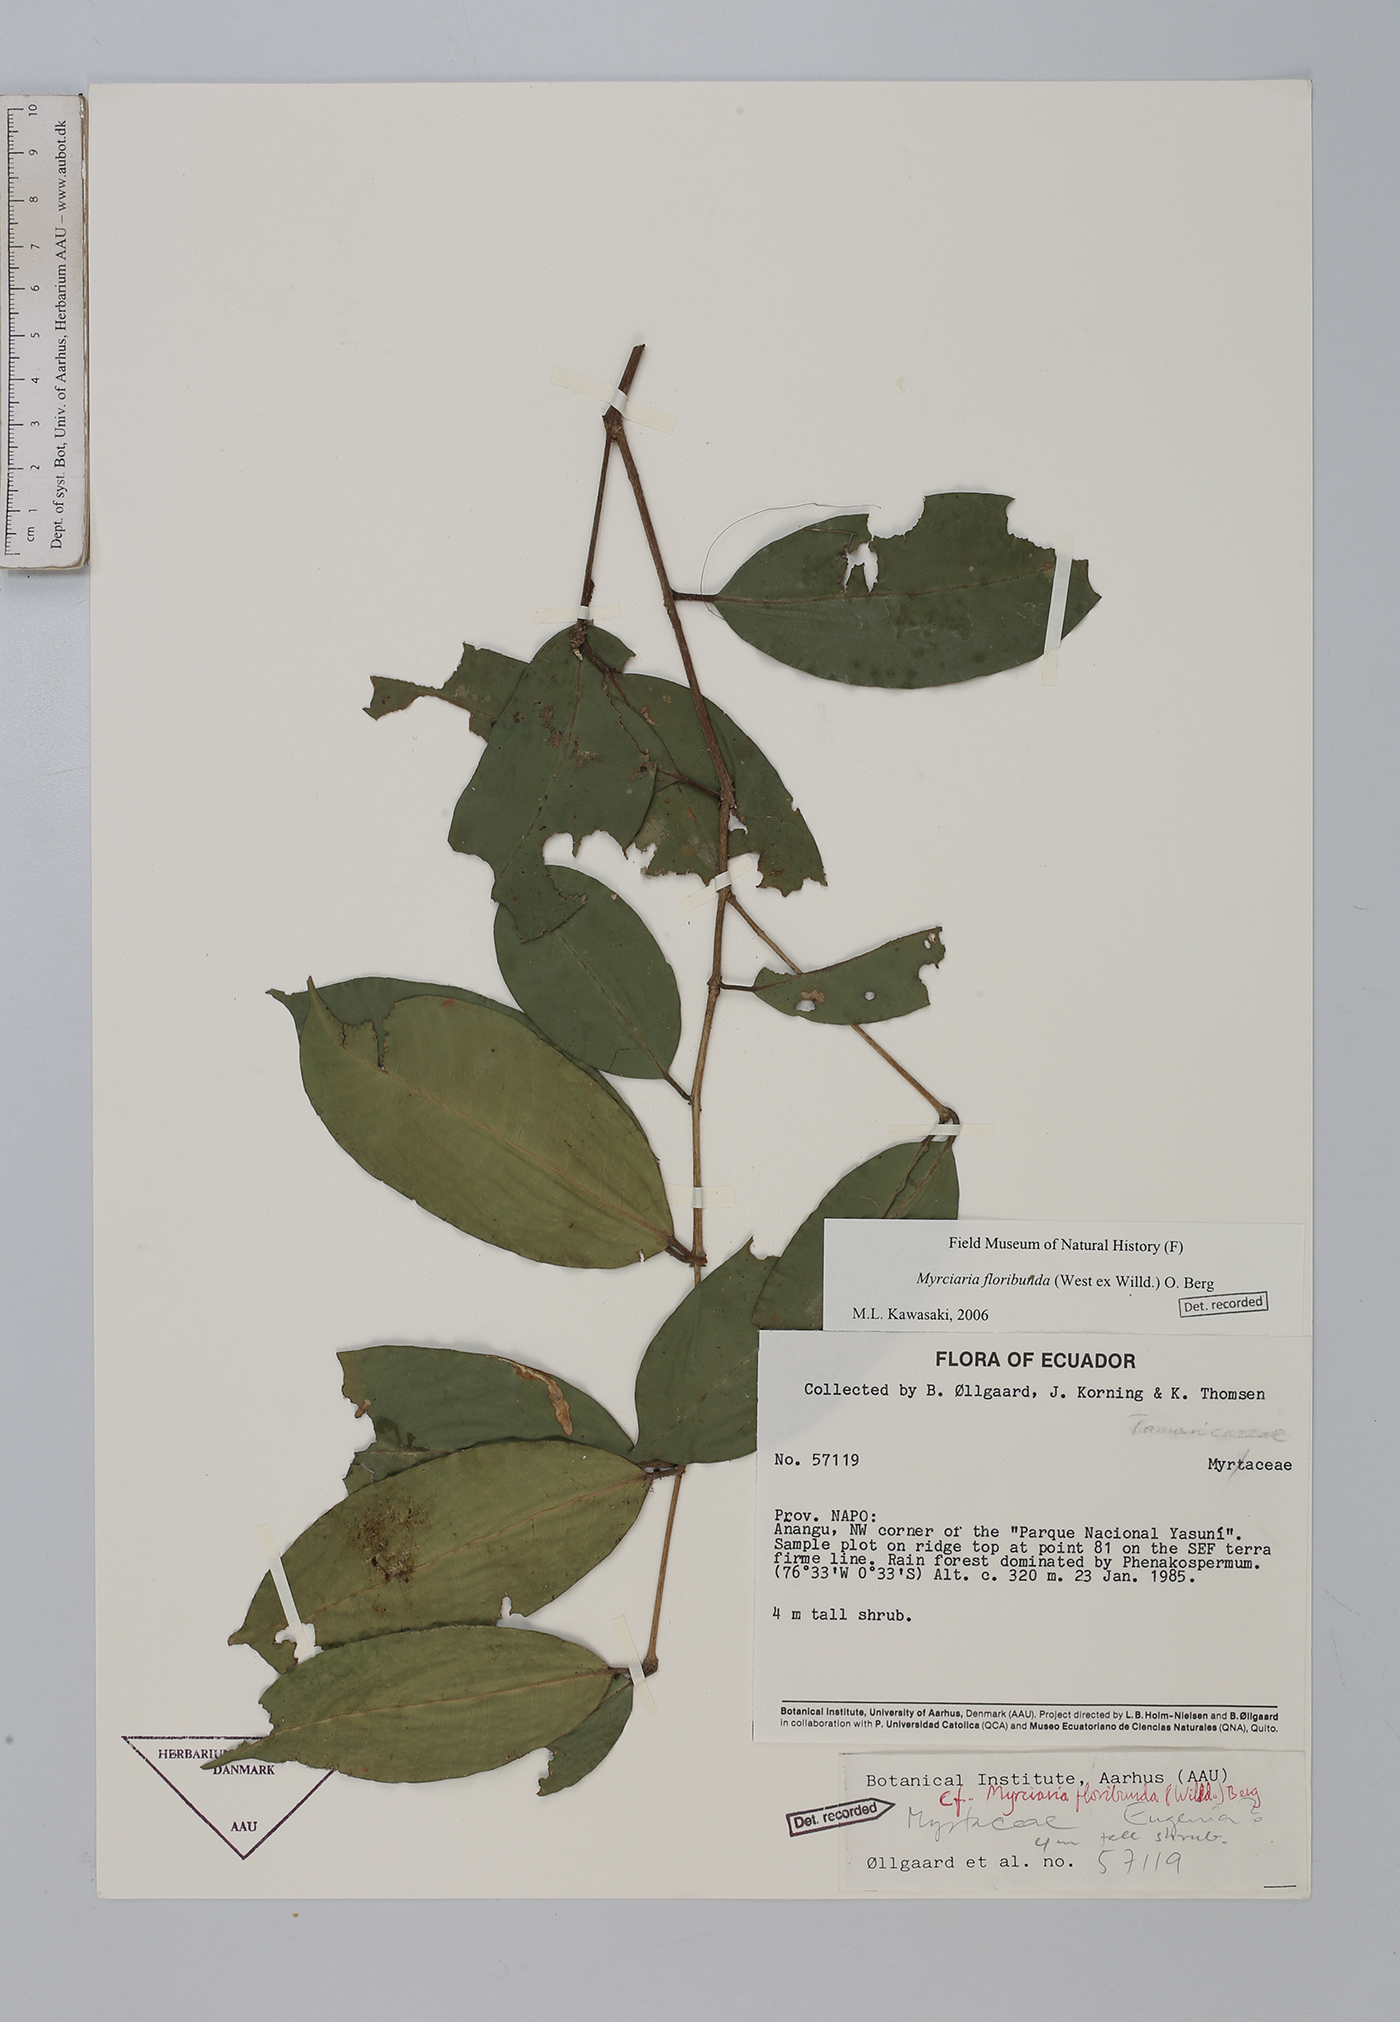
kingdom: Plantae
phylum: Tracheophyta
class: Magnoliopsida
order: Myrtales
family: Myrtaceae
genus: Myrciaria
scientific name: Myrciaria floribunda
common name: Guavaberry
